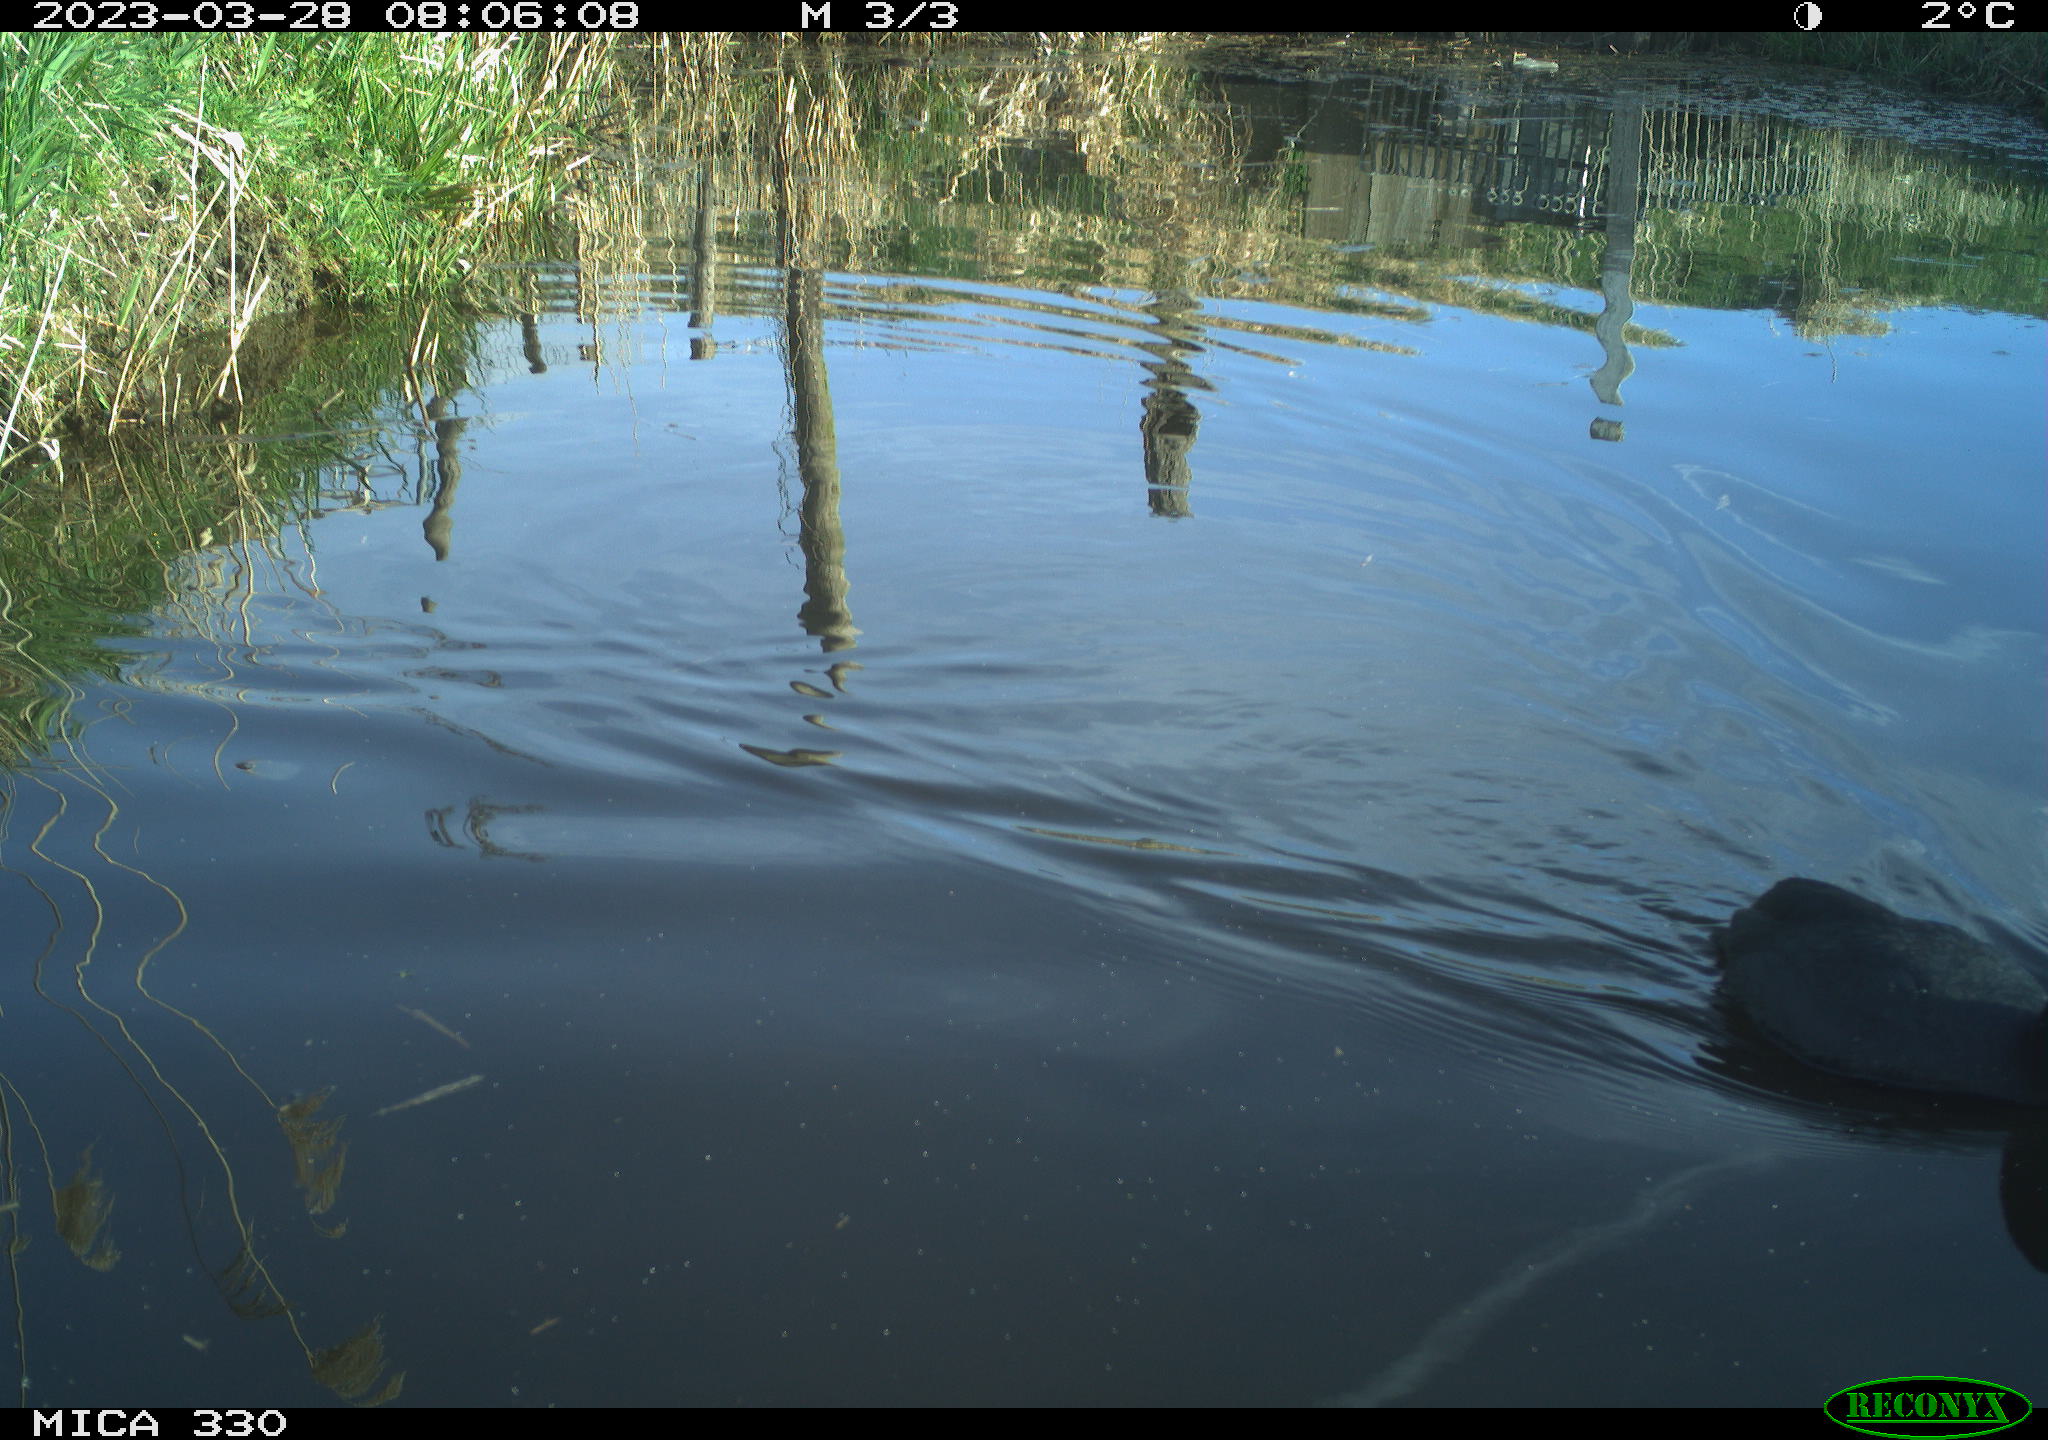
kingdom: Animalia
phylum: Chordata
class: Aves
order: Gruiformes
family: Rallidae
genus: Fulica
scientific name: Fulica atra
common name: Eurasian coot
